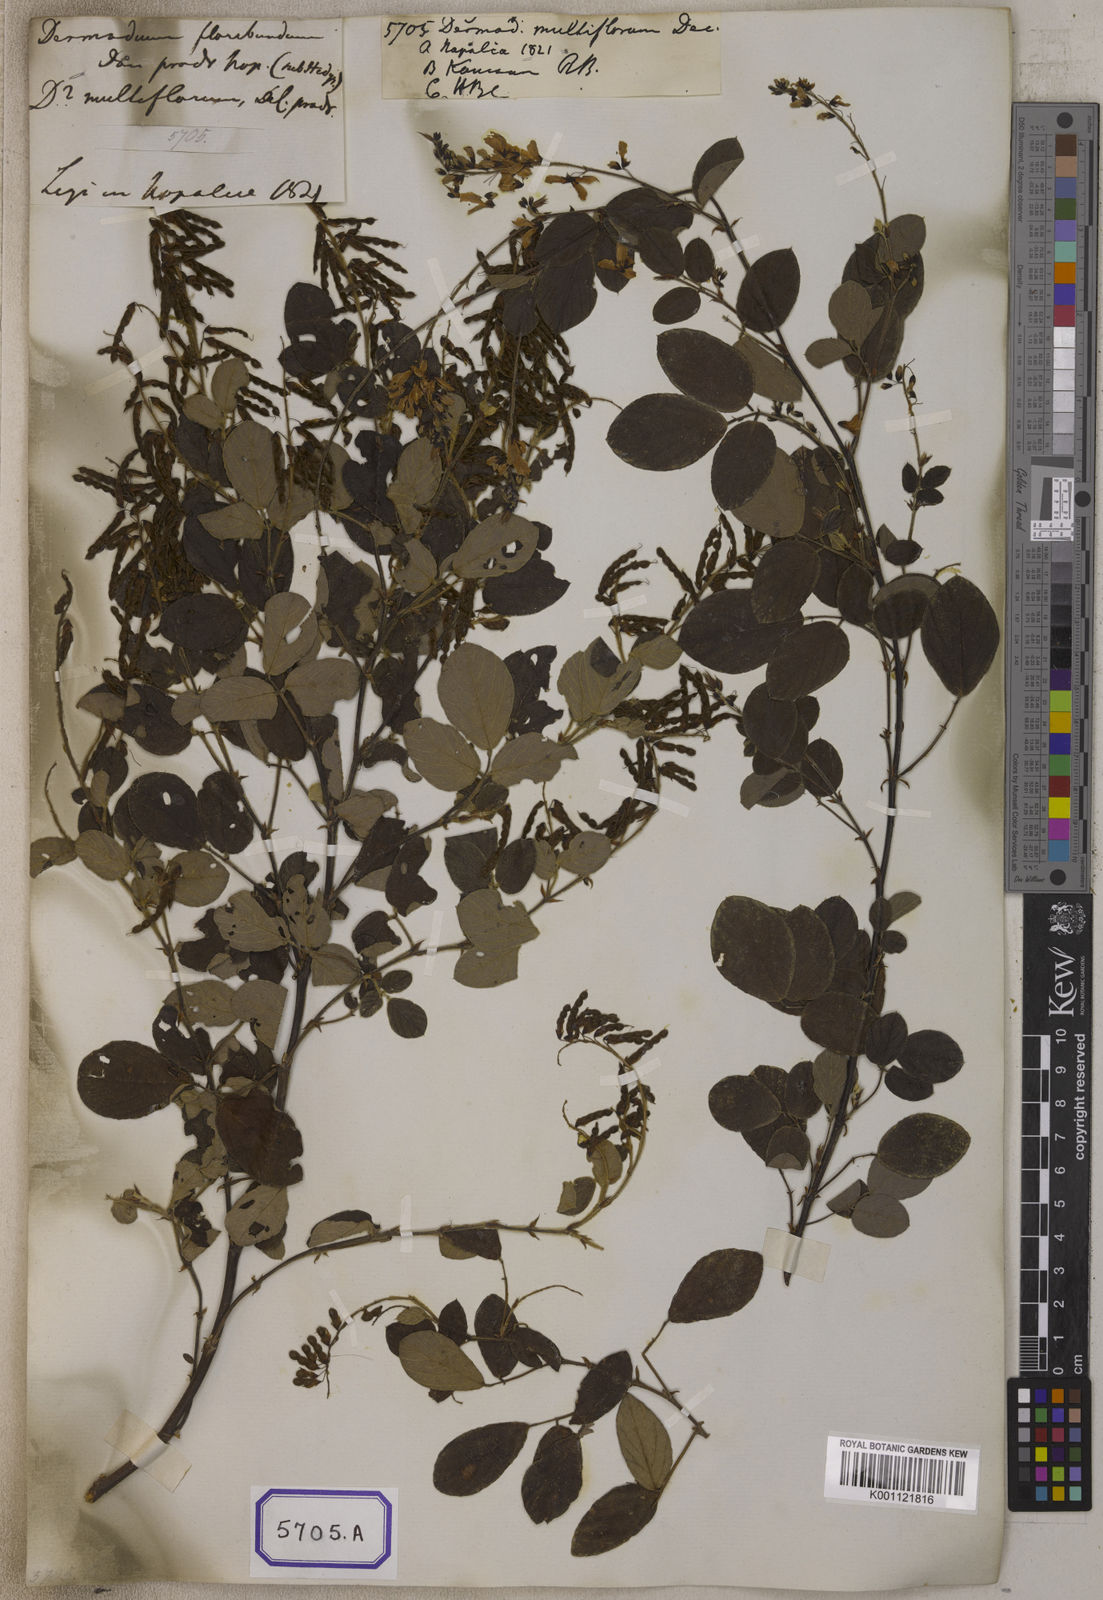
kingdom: Plantae
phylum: Tracheophyta
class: Magnoliopsida
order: Fabales
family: Fabaceae
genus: Ototropis
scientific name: Ototropis multiflora
